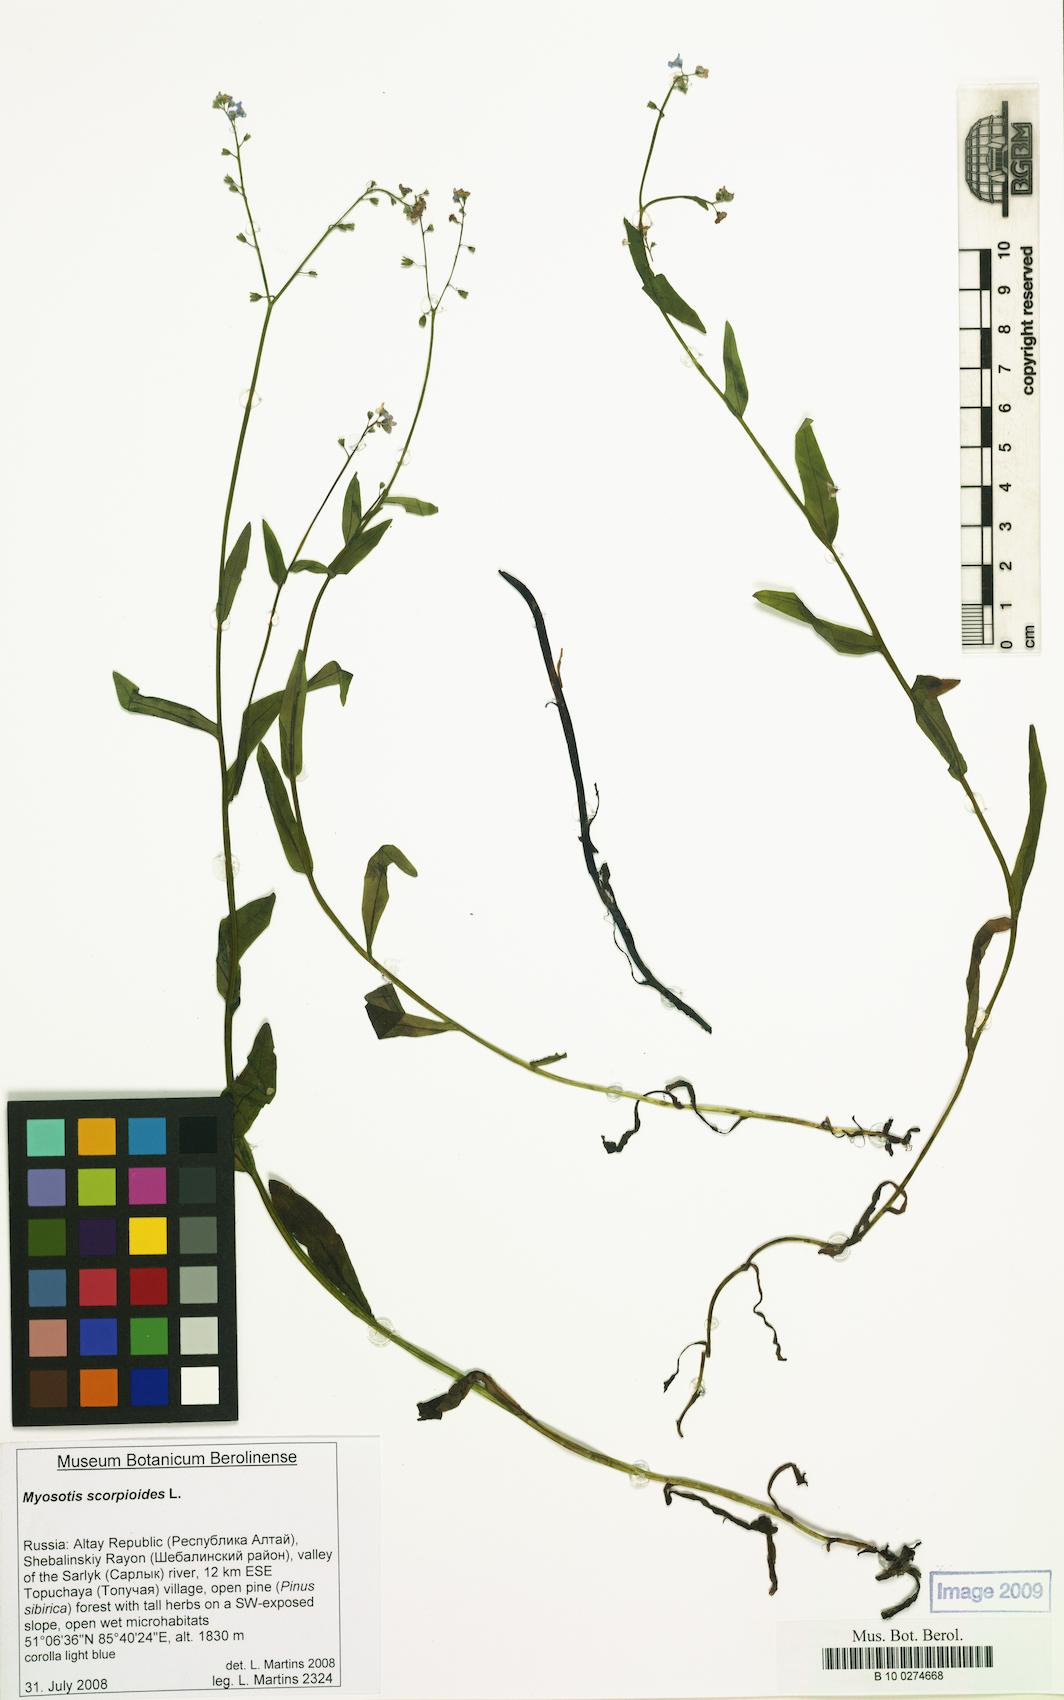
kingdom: Plantae
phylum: Tracheophyta
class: Magnoliopsida
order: Boraginales
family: Boraginaceae
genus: Myosotis
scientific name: Myosotis scorpioides
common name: Water forget-me-not
